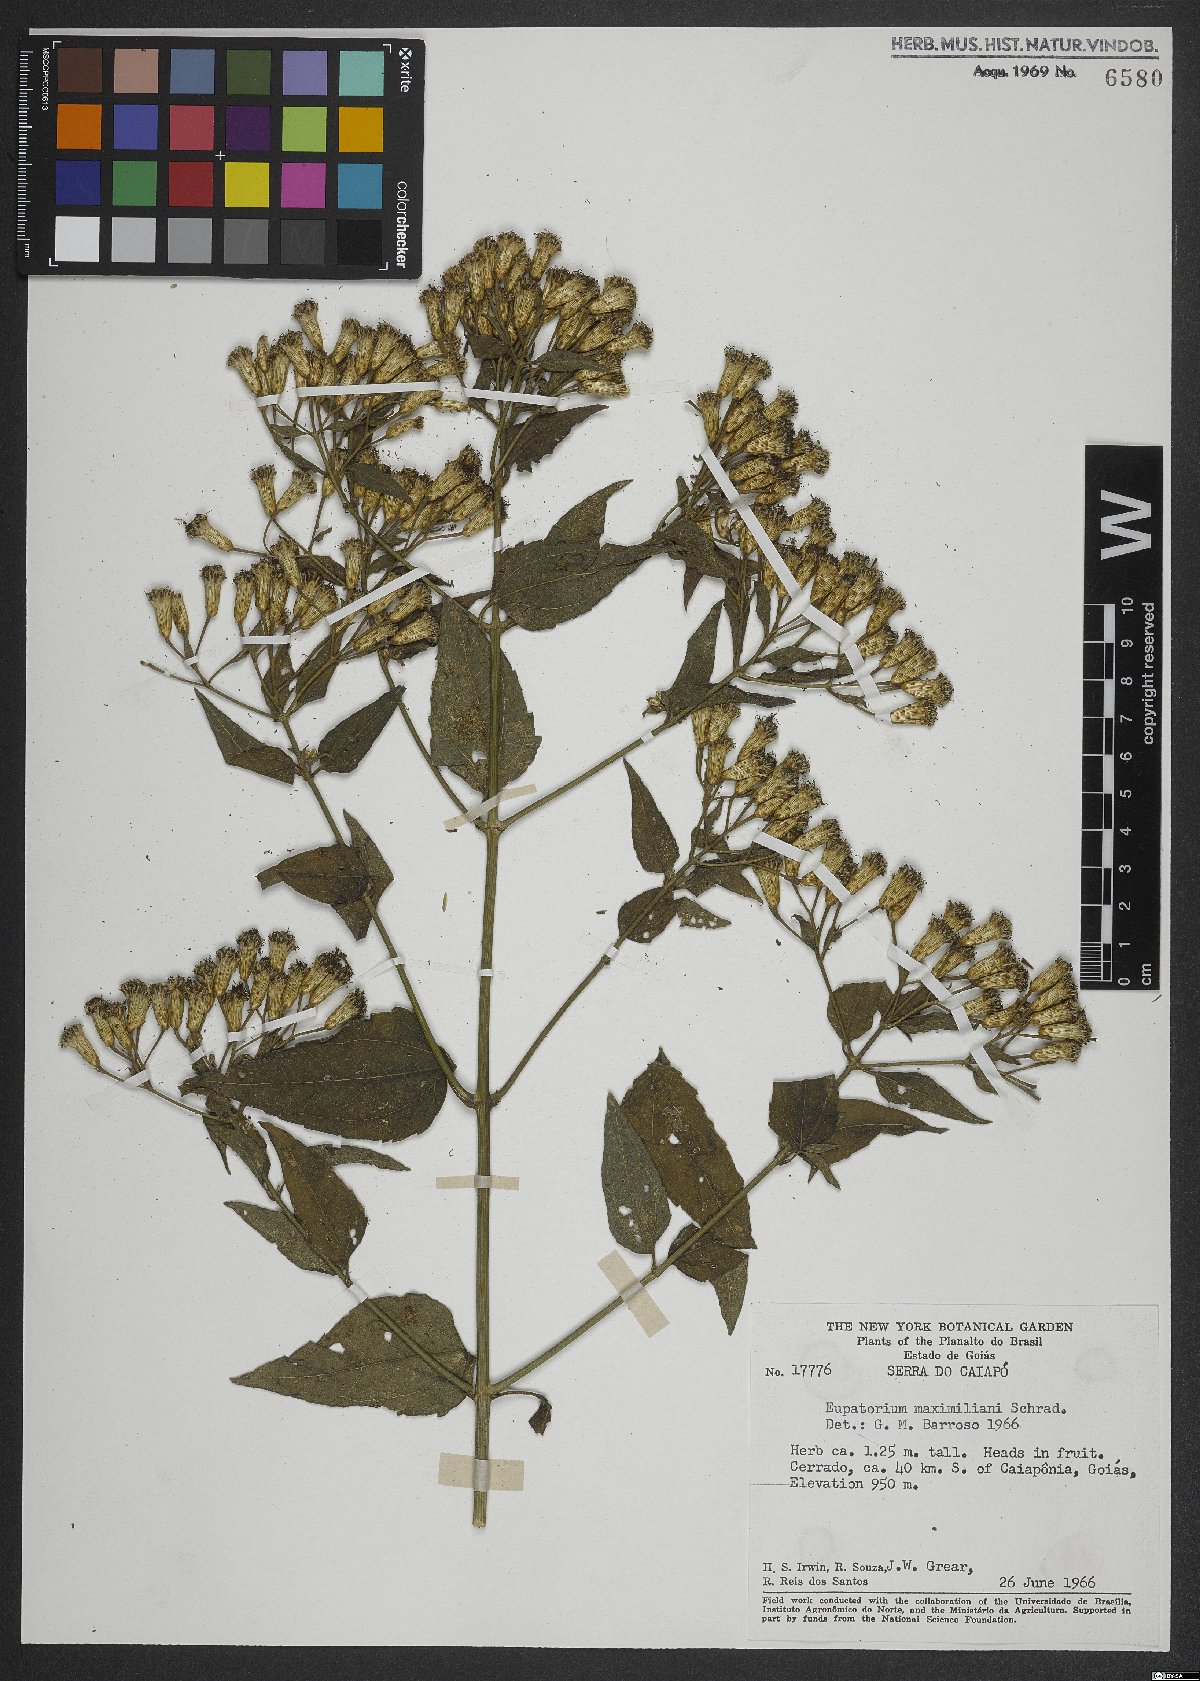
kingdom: Plantae
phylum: Tracheophyta
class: Magnoliopsida
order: Asterales
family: Asteraceae
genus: Chromolaena
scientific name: Chromolaena maximiliani
